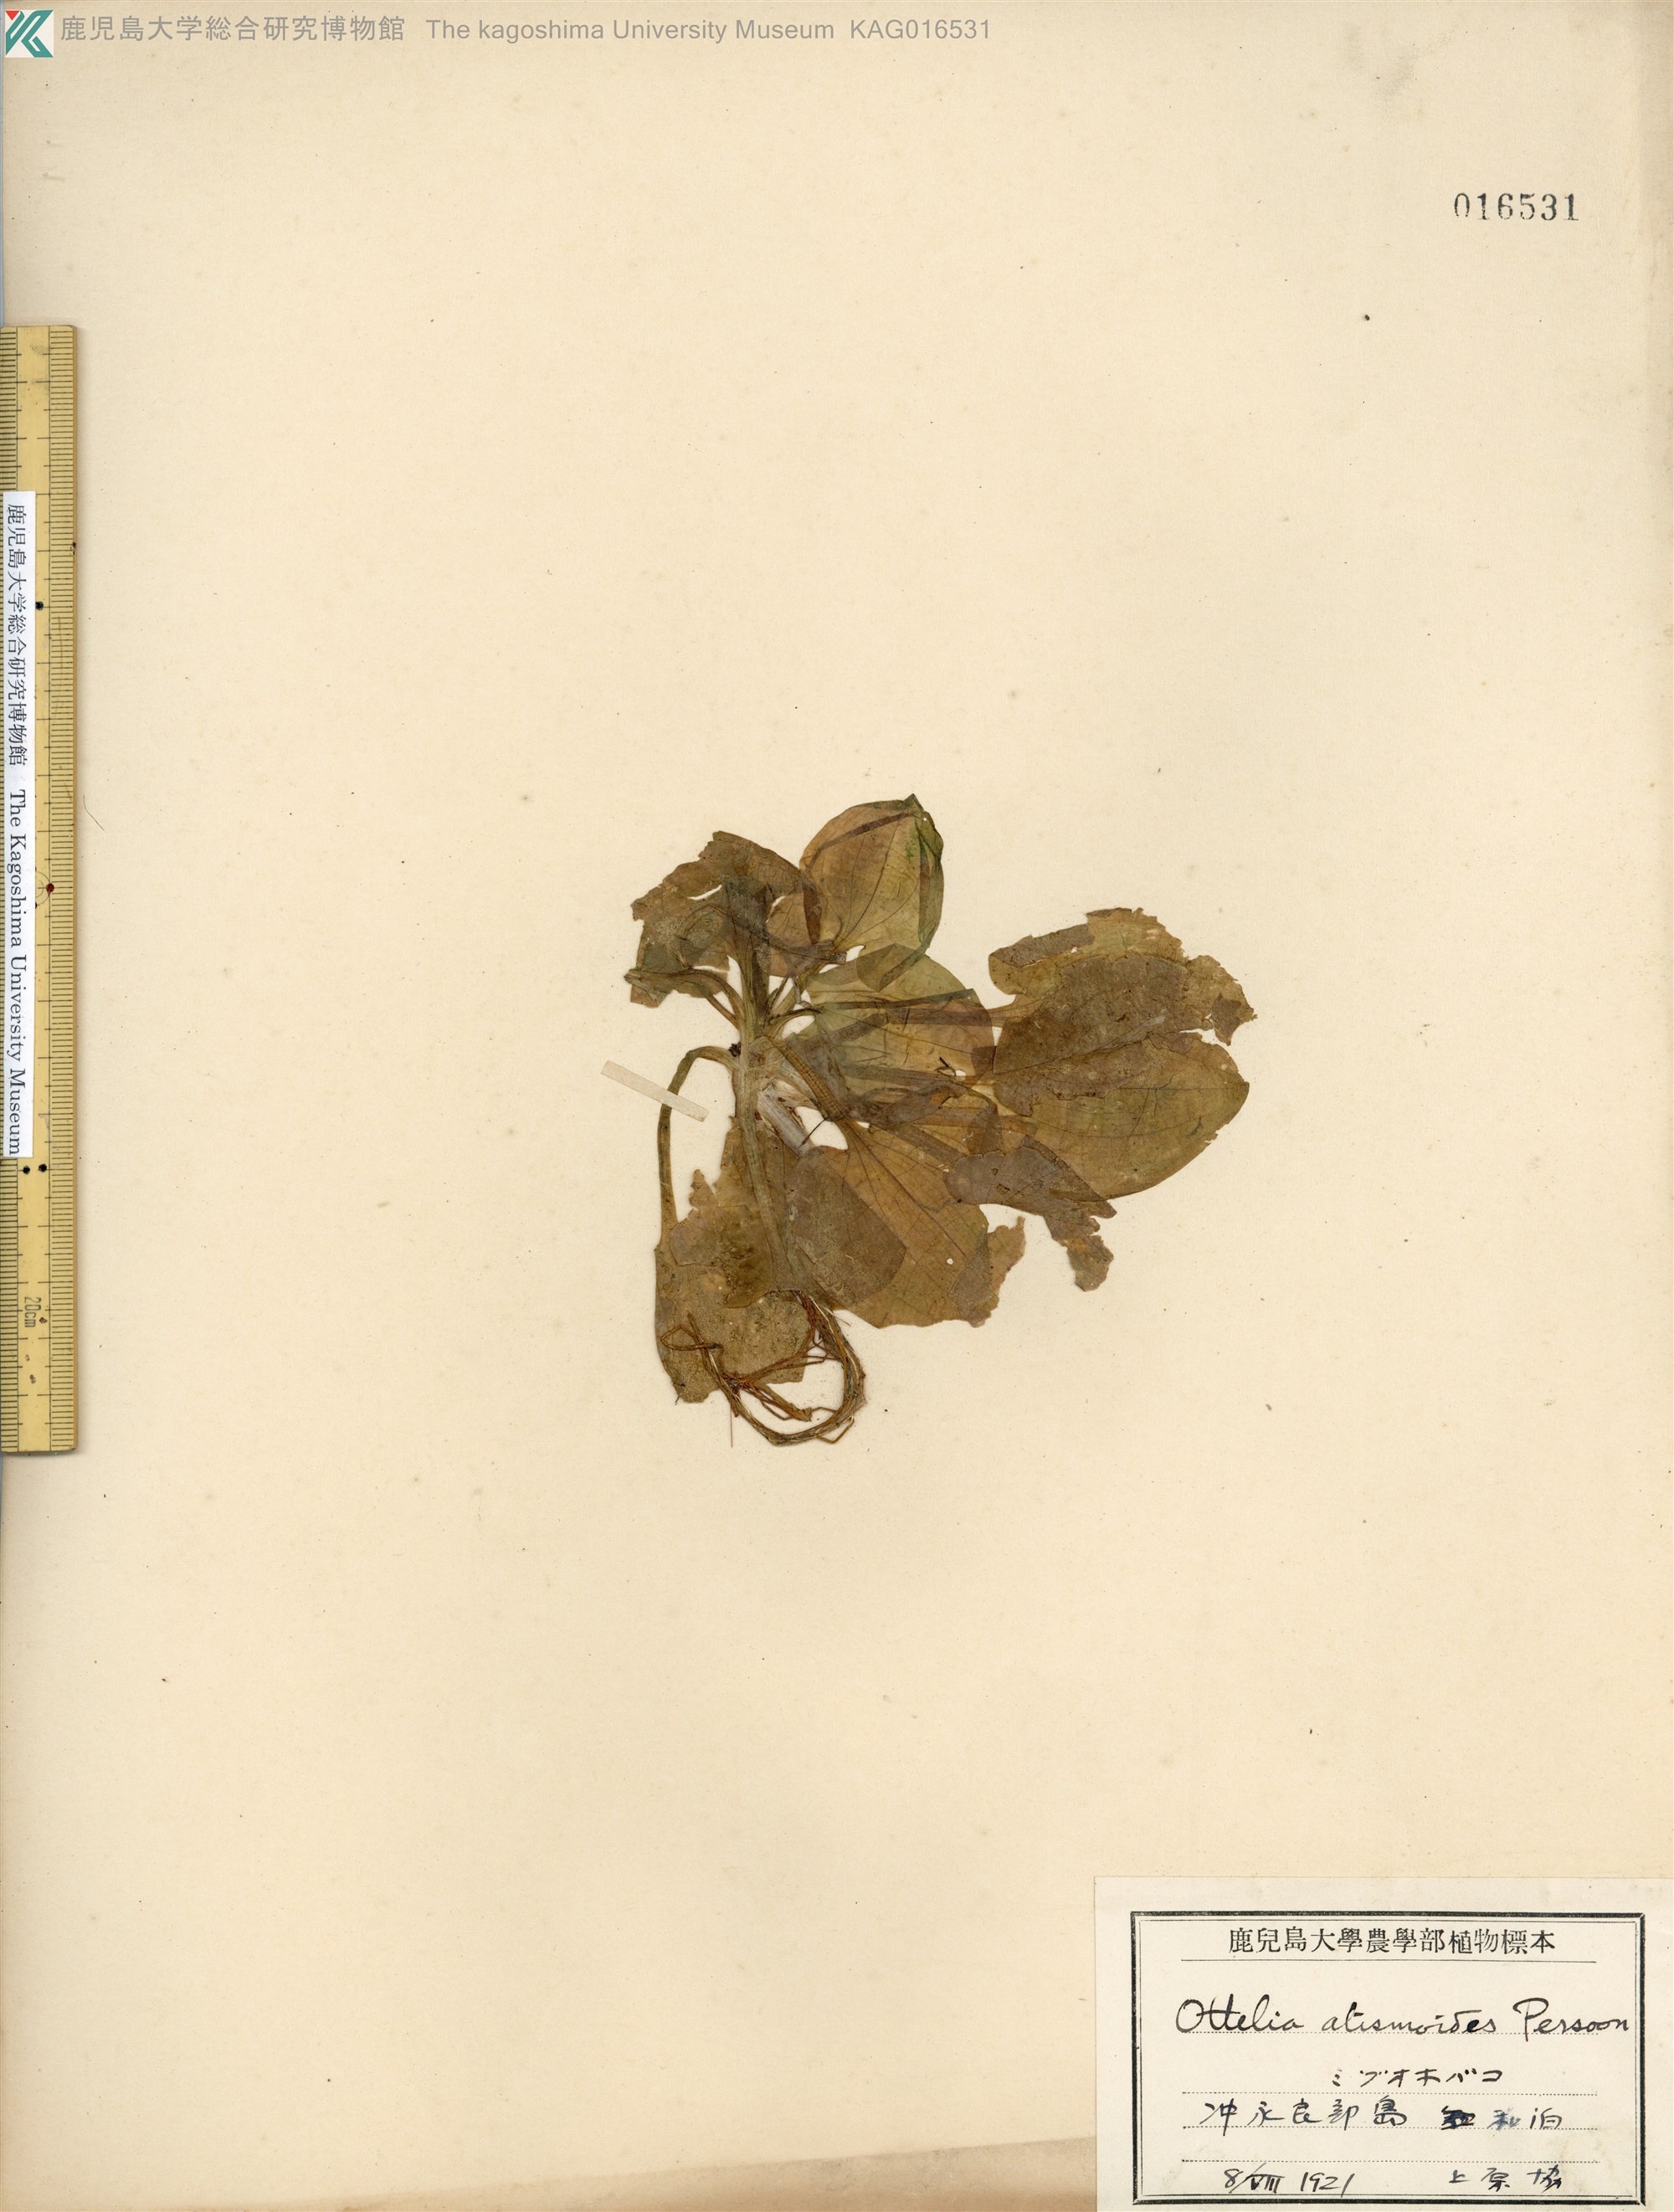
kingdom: Plantae
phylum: Tracheophyta
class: Liliopsida
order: Alismatales
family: Hydrocharitaceae
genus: Ottelia
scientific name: Ottelia alismoides
